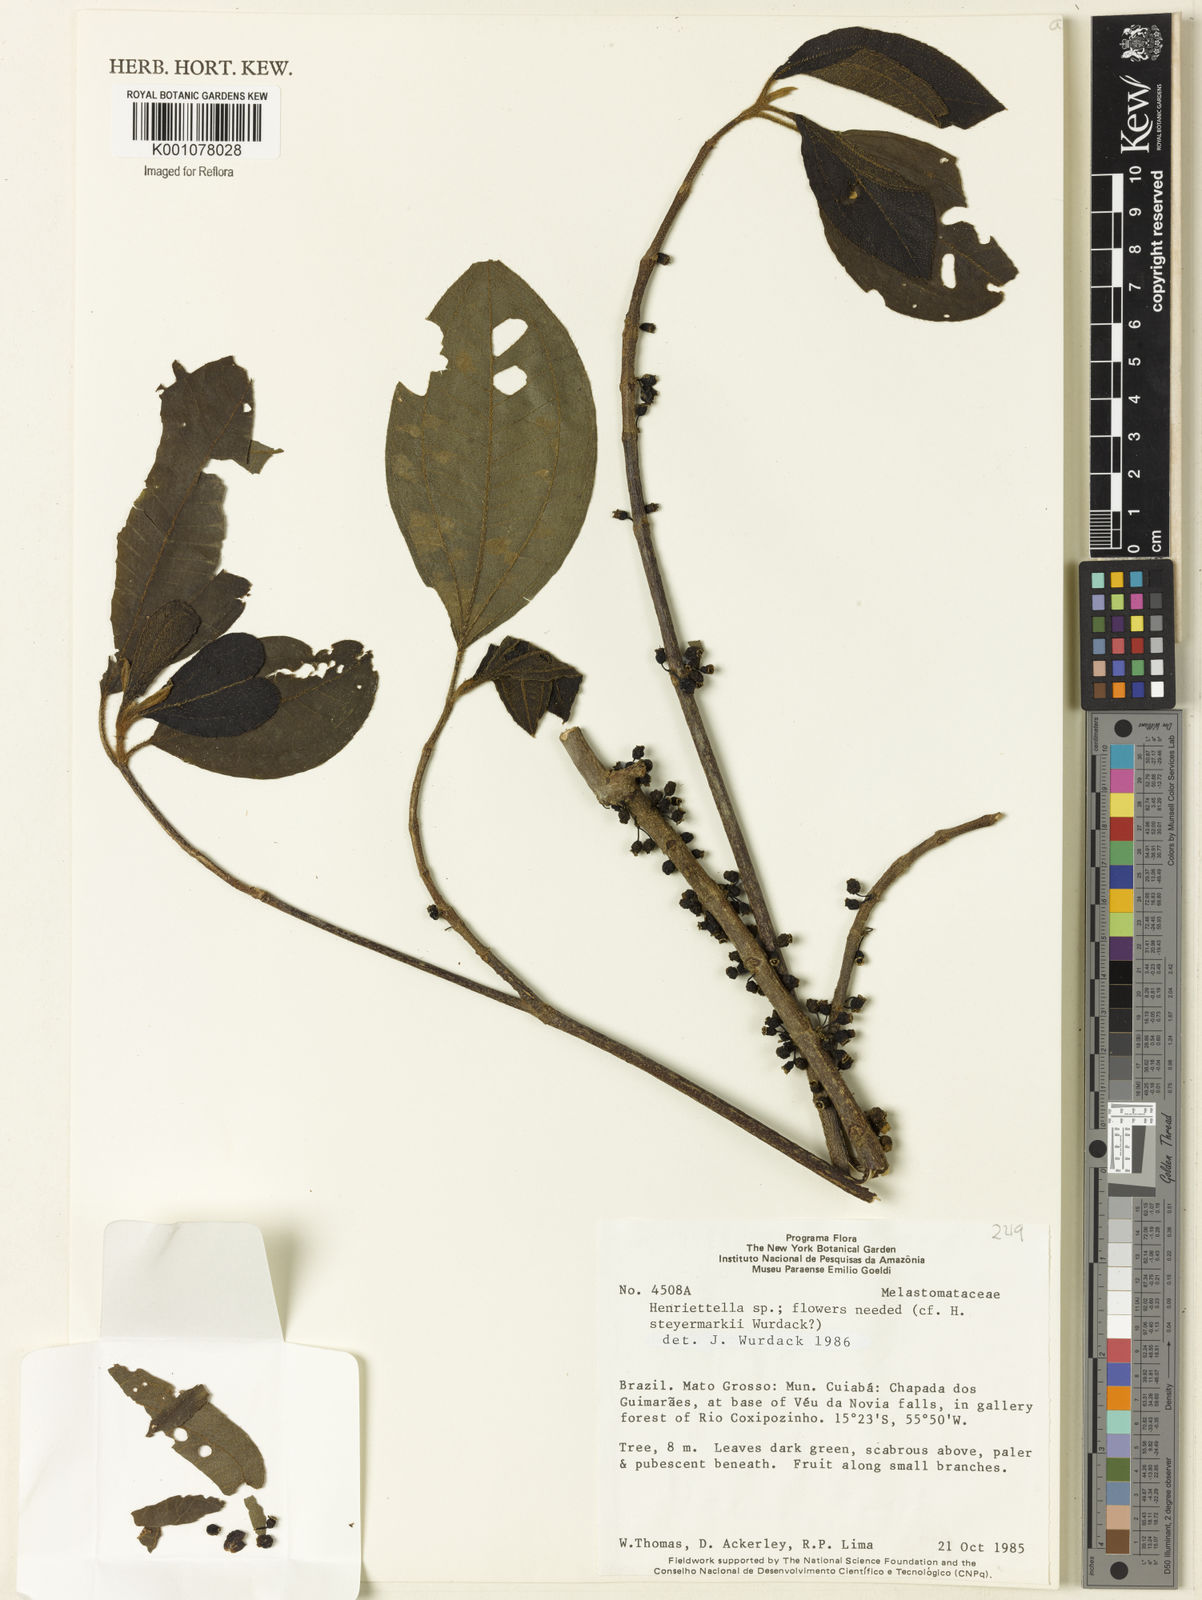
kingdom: Plantae
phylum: Tracheophyta
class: Magnoliopsida
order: Myrtales
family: Melastomataceae
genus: Henriettea
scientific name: Henriettea
